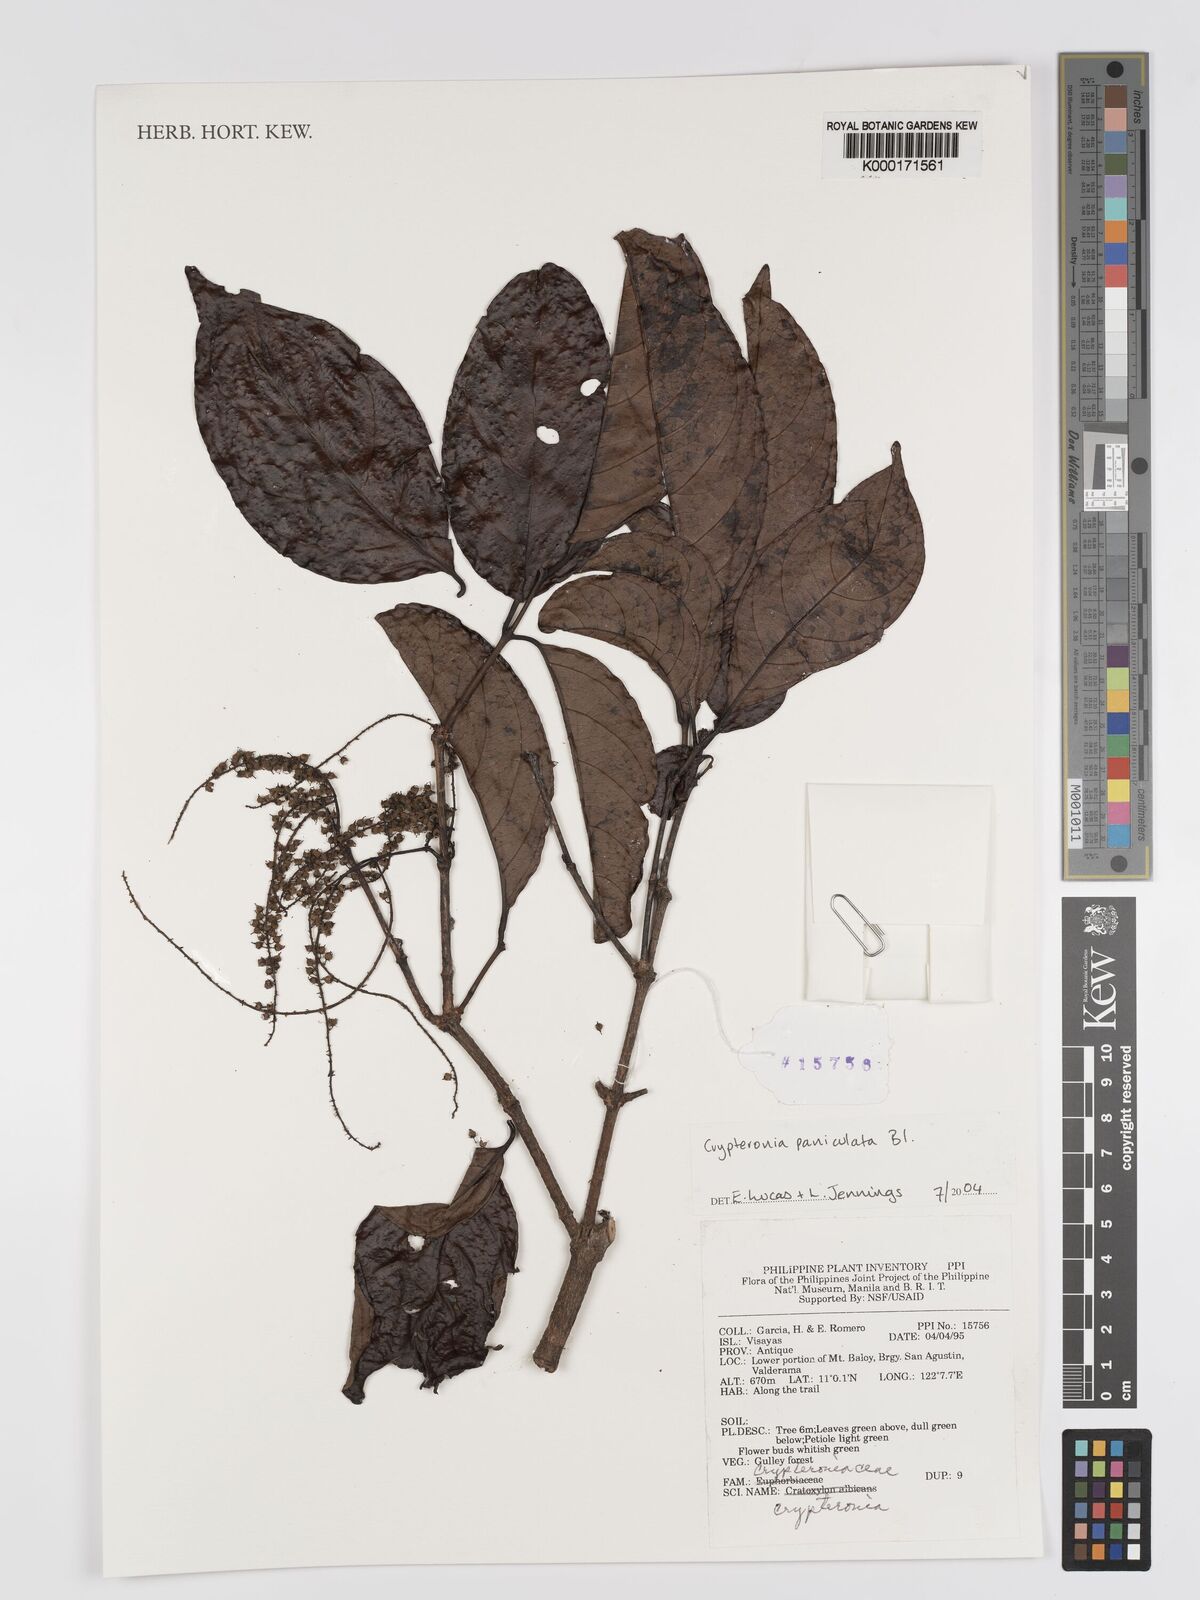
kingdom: Plantae
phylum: Tracheophyta
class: Magnoliopsida
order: Myrtales
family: Crypteroniaceae
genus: Crypteronia
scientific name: Crypteronia paniculata
